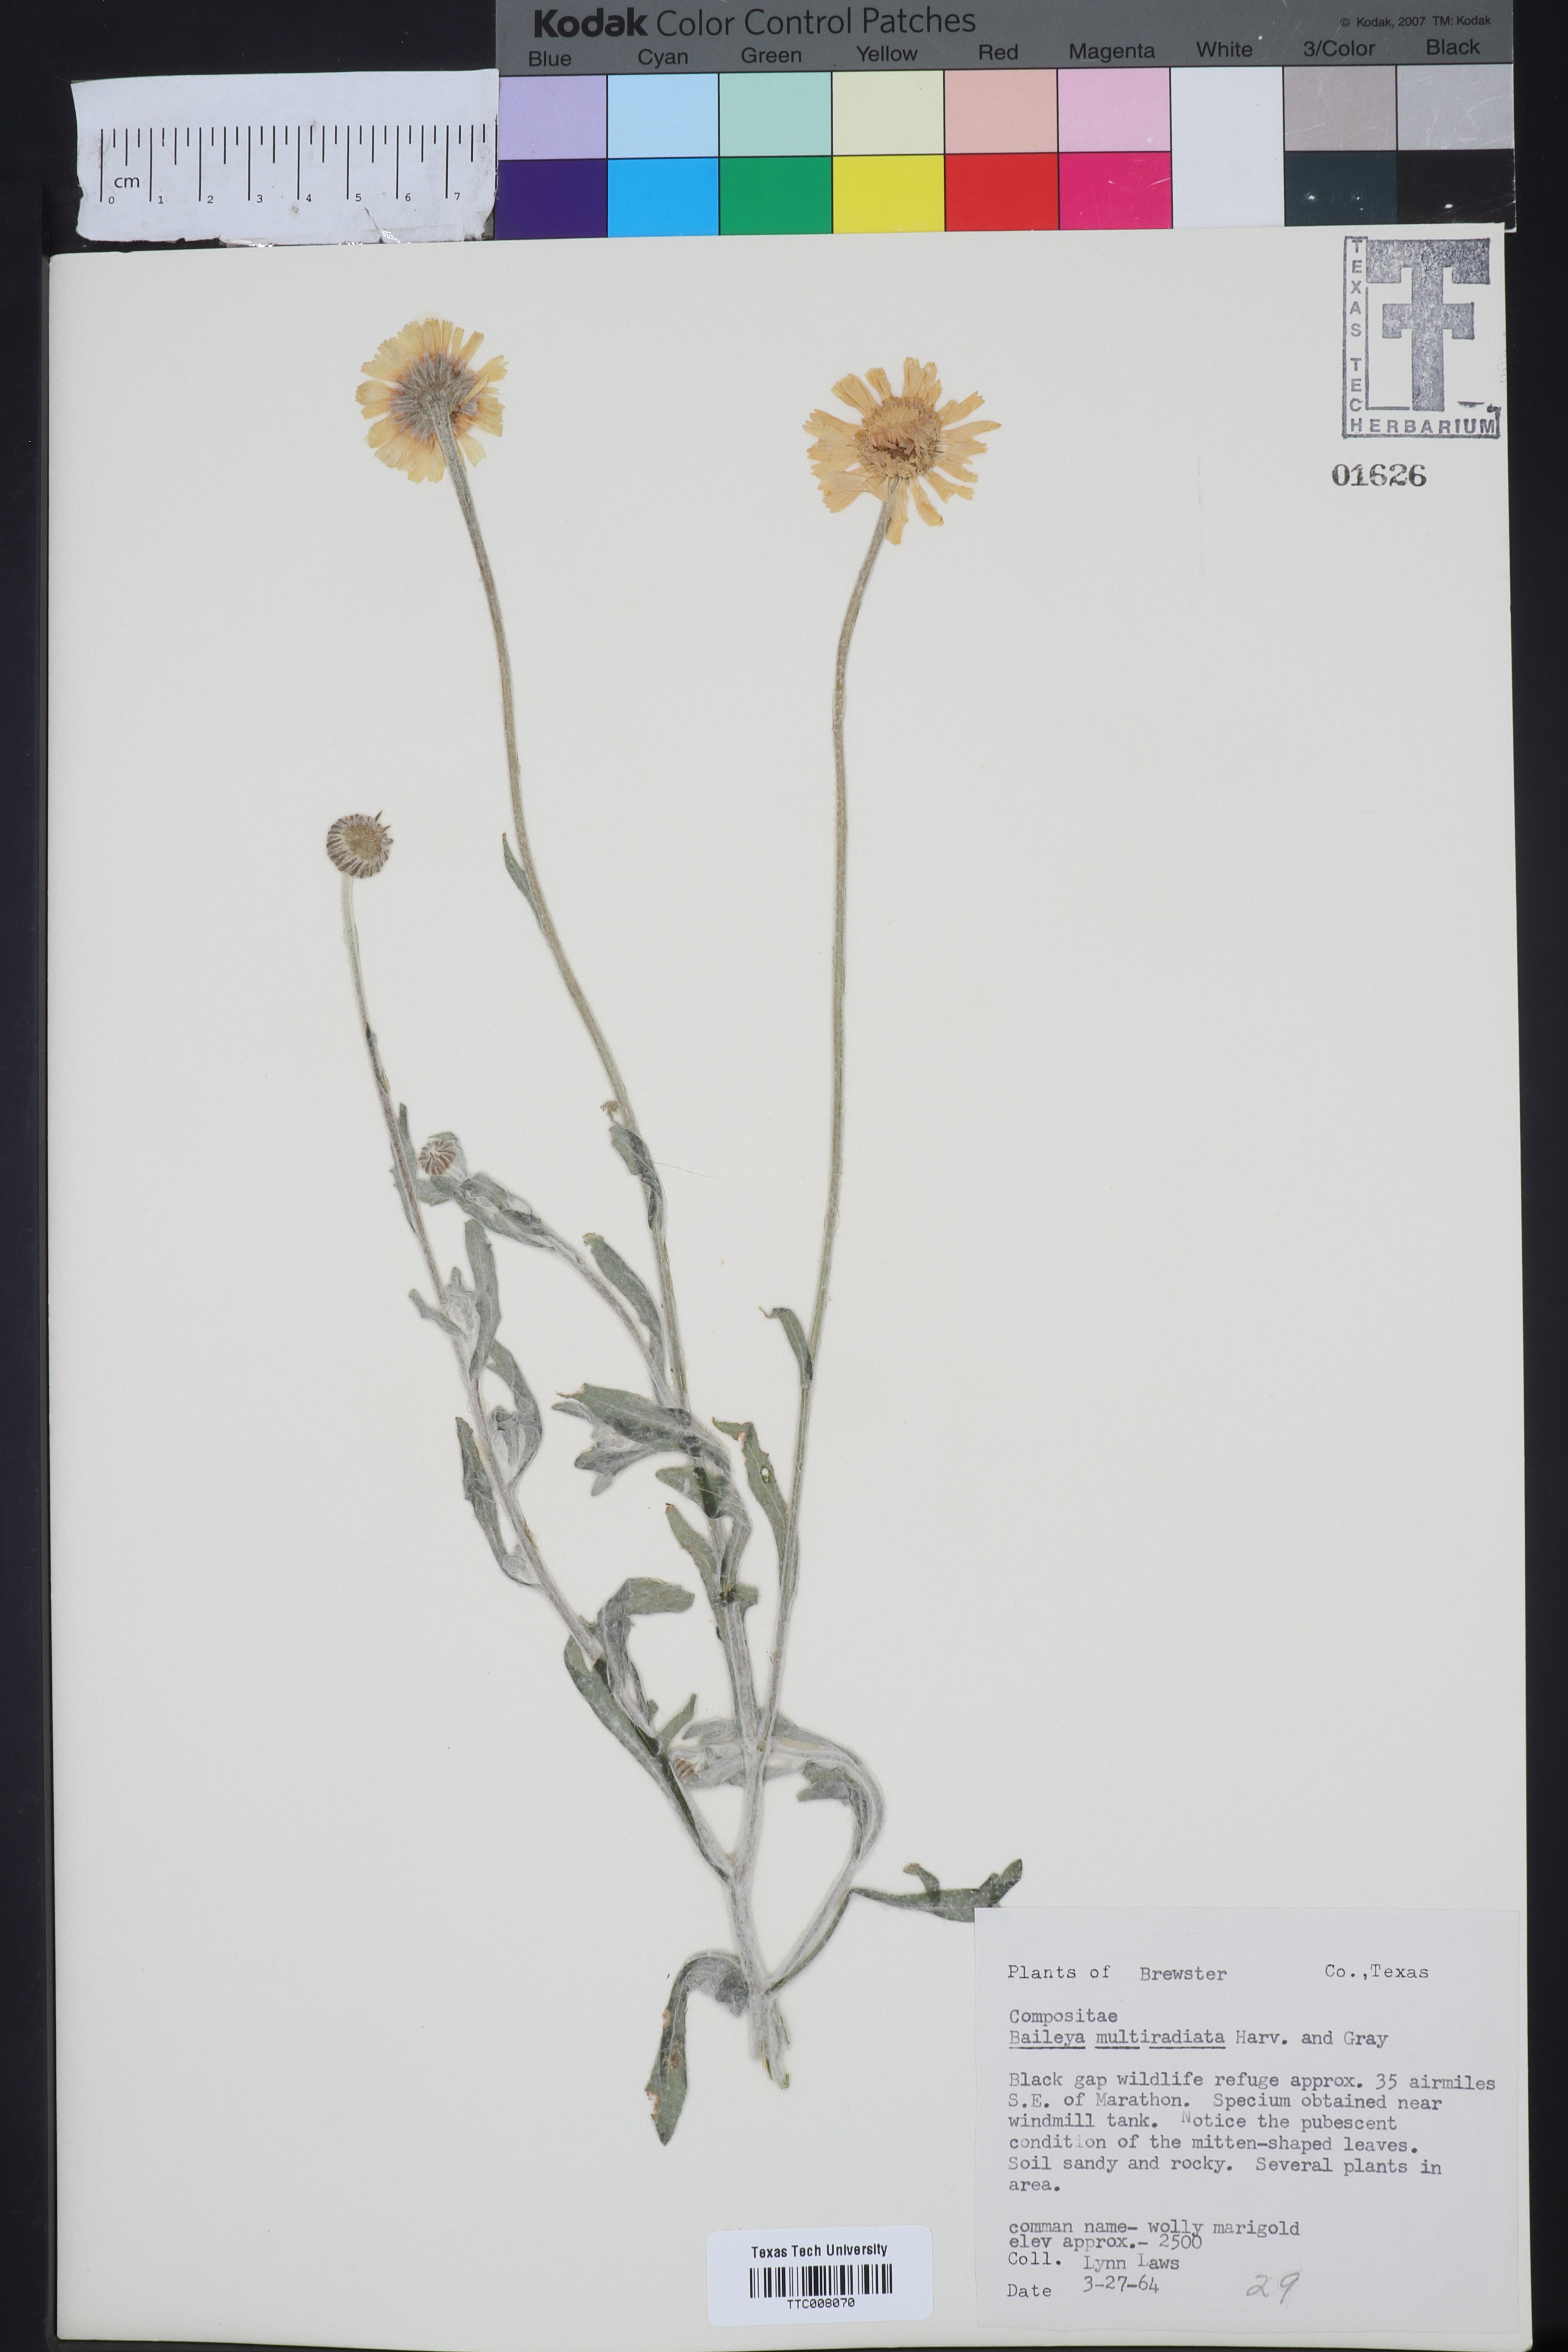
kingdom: Plantae
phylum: Tracheophyta
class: Magnoliopsida
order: Asterales
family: Asteraceae
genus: Baileya
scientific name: Baileya multiradiata
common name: Desert-marigold
